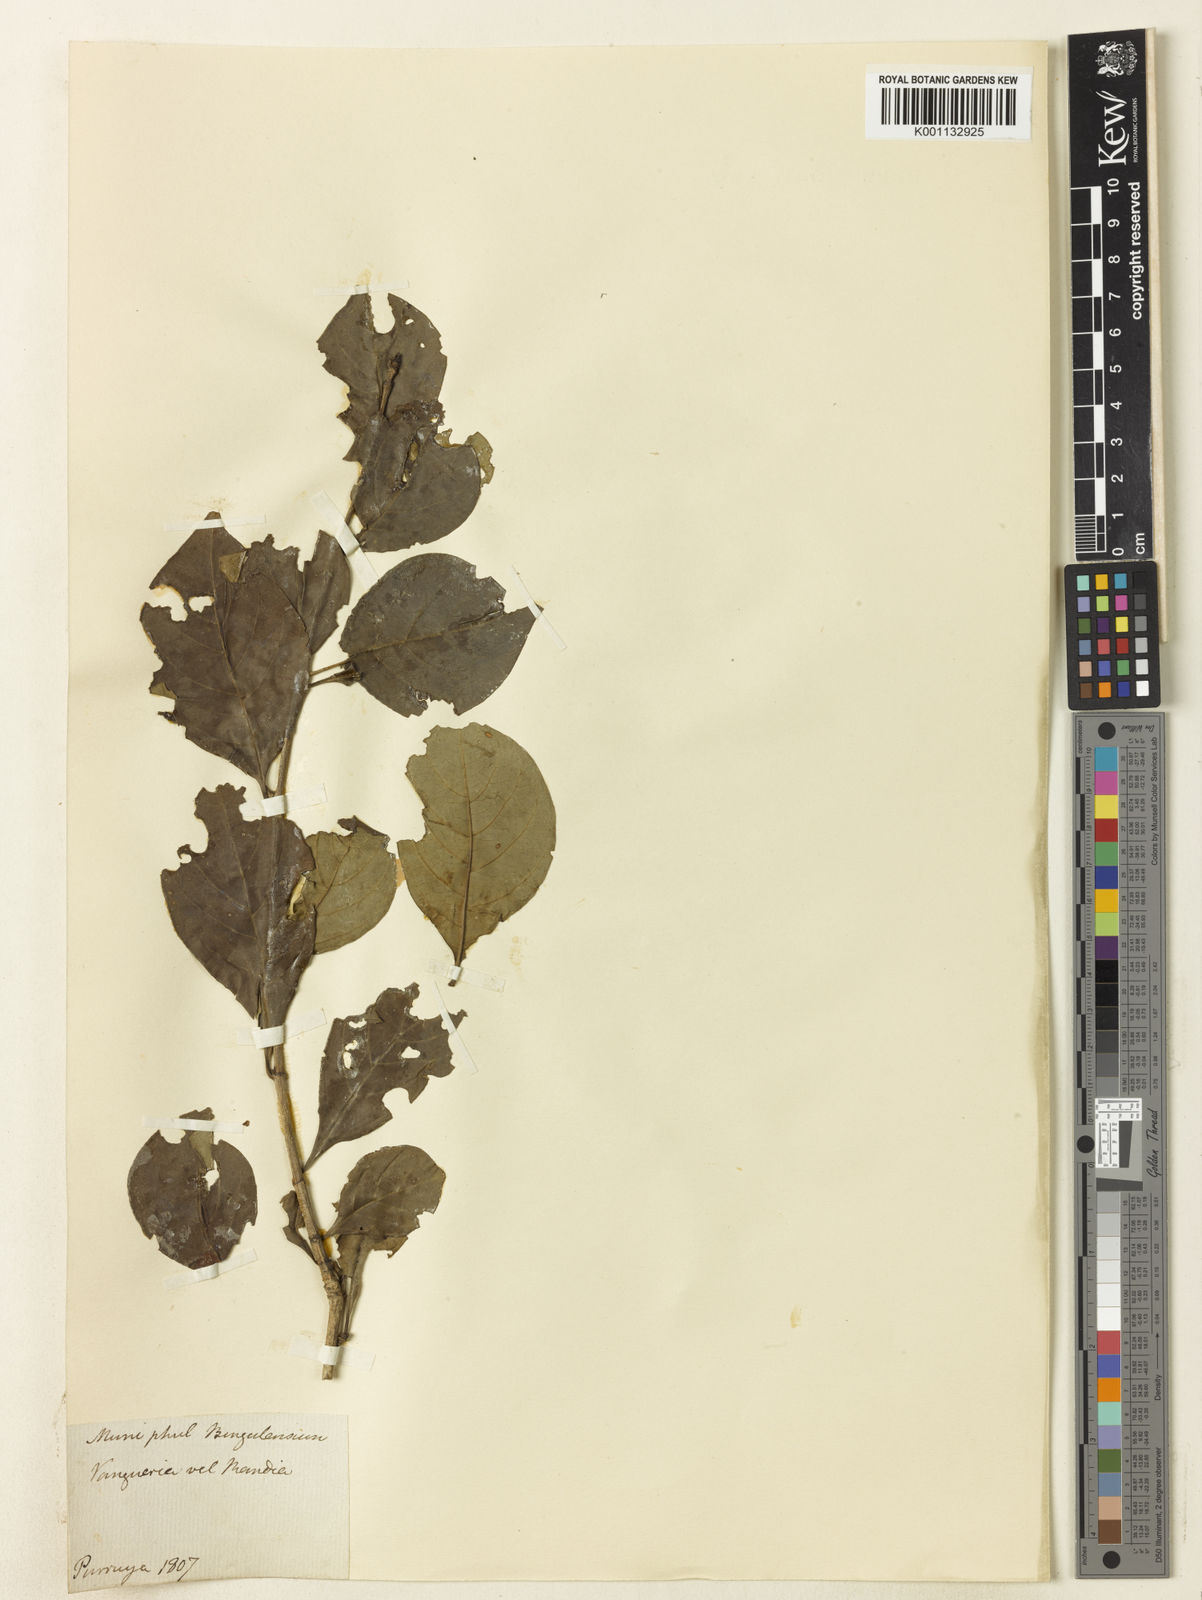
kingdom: Plantae
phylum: Tracheophyta
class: Magnoliopsida
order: Gentianales
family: Rubiaceae
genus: Vangueria
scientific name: Vangueria
